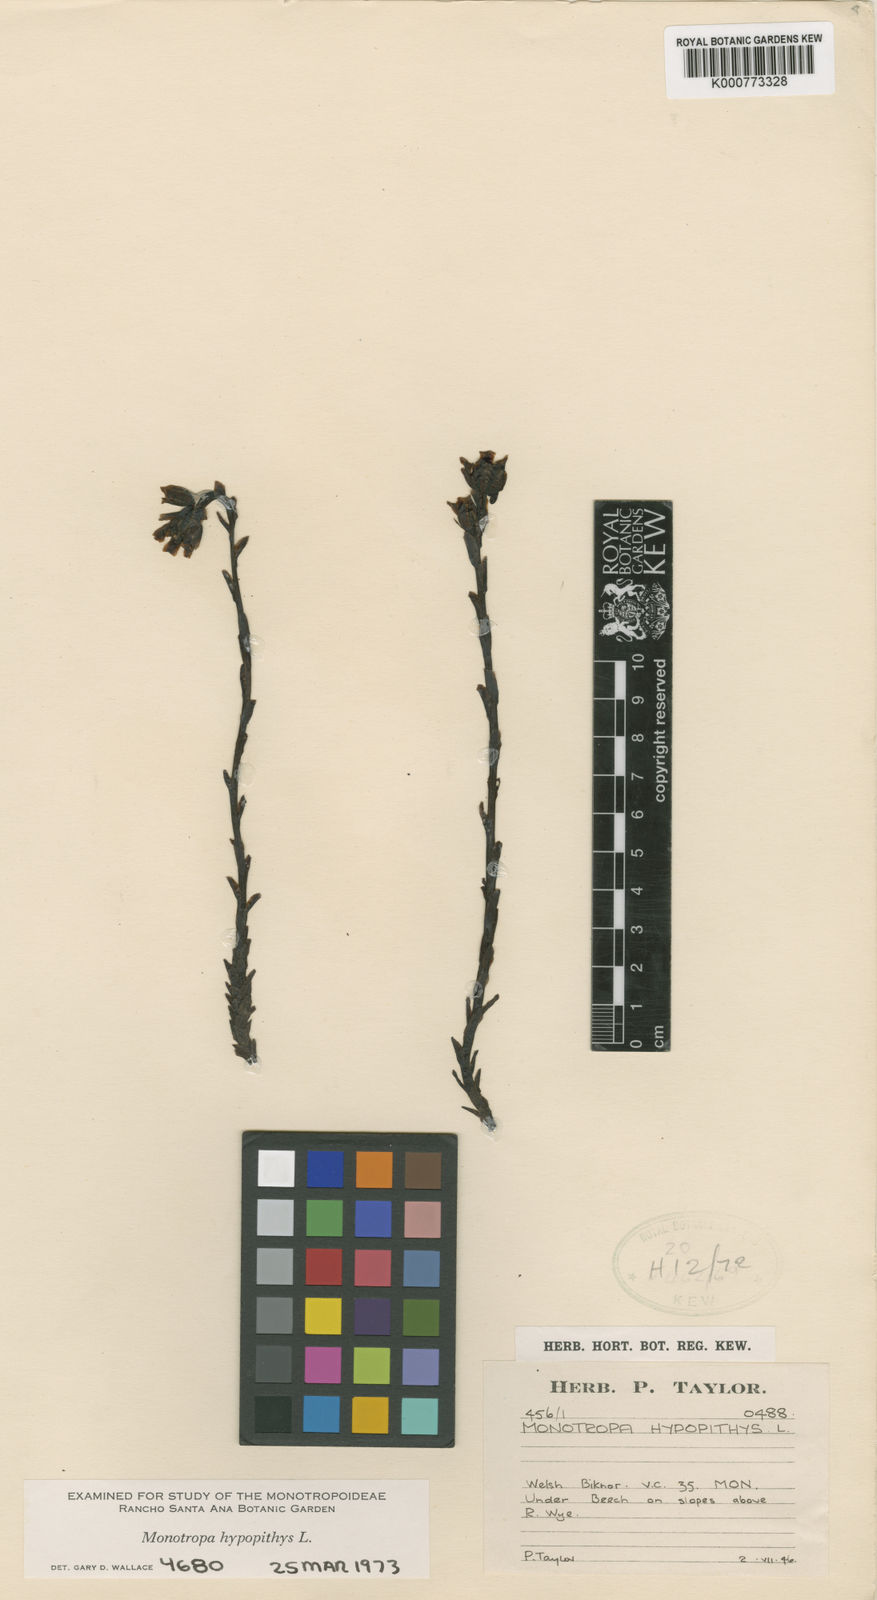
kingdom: Plantae
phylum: Tracheophyta
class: Magnoliopsida
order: Ericales
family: Ericaceae
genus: Monotropa
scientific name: Monotropa
